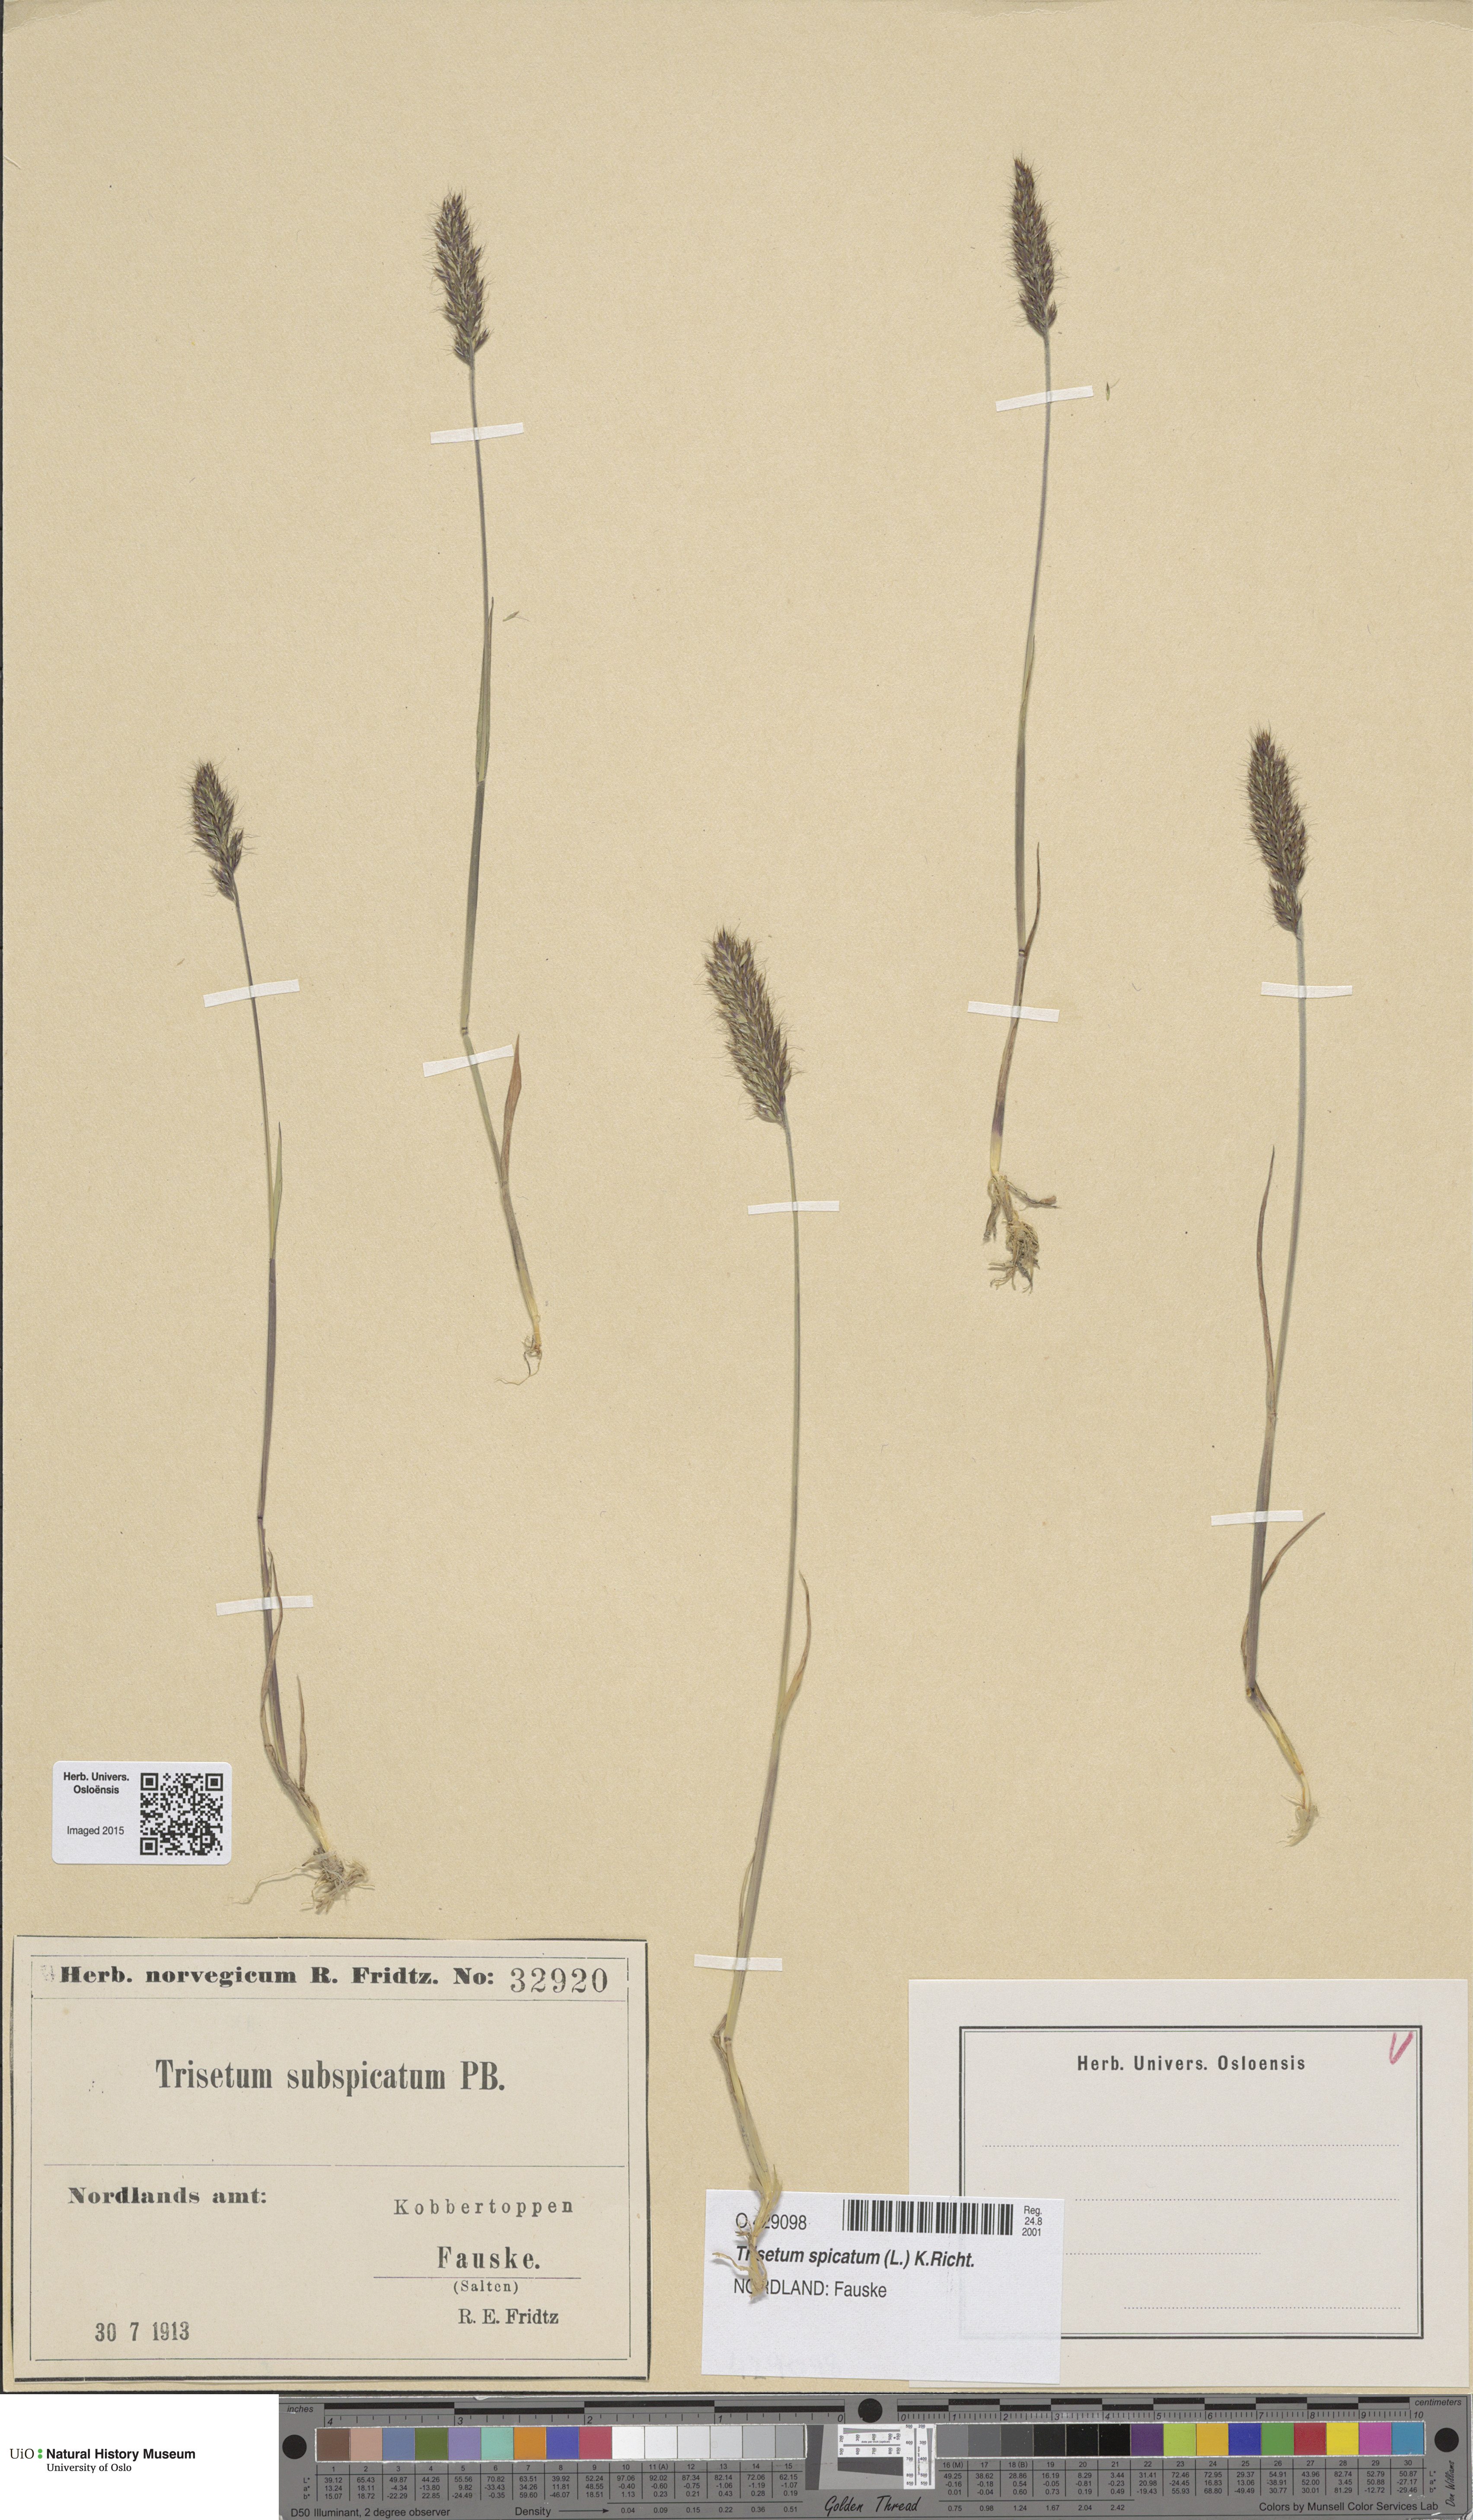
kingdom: Plantae
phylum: Tracheophyta
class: Liliopsida
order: Poales
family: Poaceae
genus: Koeleria
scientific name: Koeleria spicata
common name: Mountain trisetum
